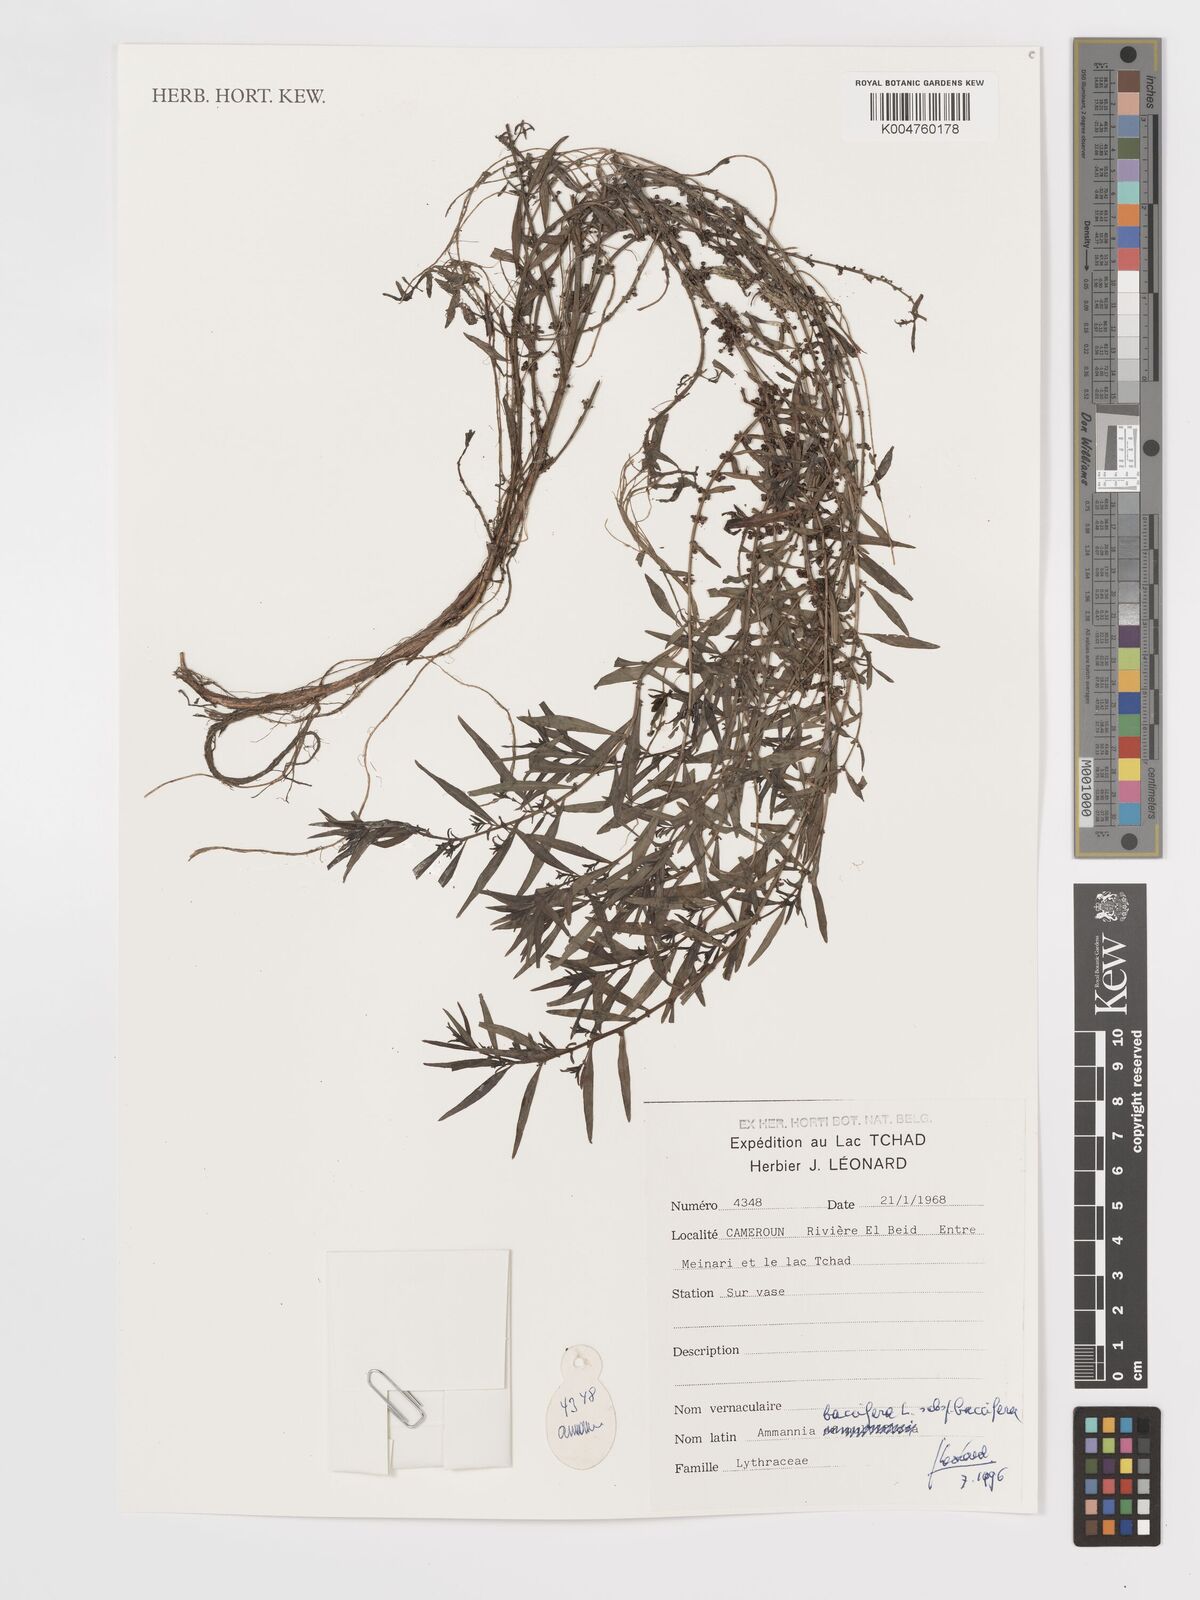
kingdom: Plantae
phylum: Tracheophyta
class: Magnoliopsida
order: Myrtales
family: Lythraceae
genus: Ammannia
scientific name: Ammannia
